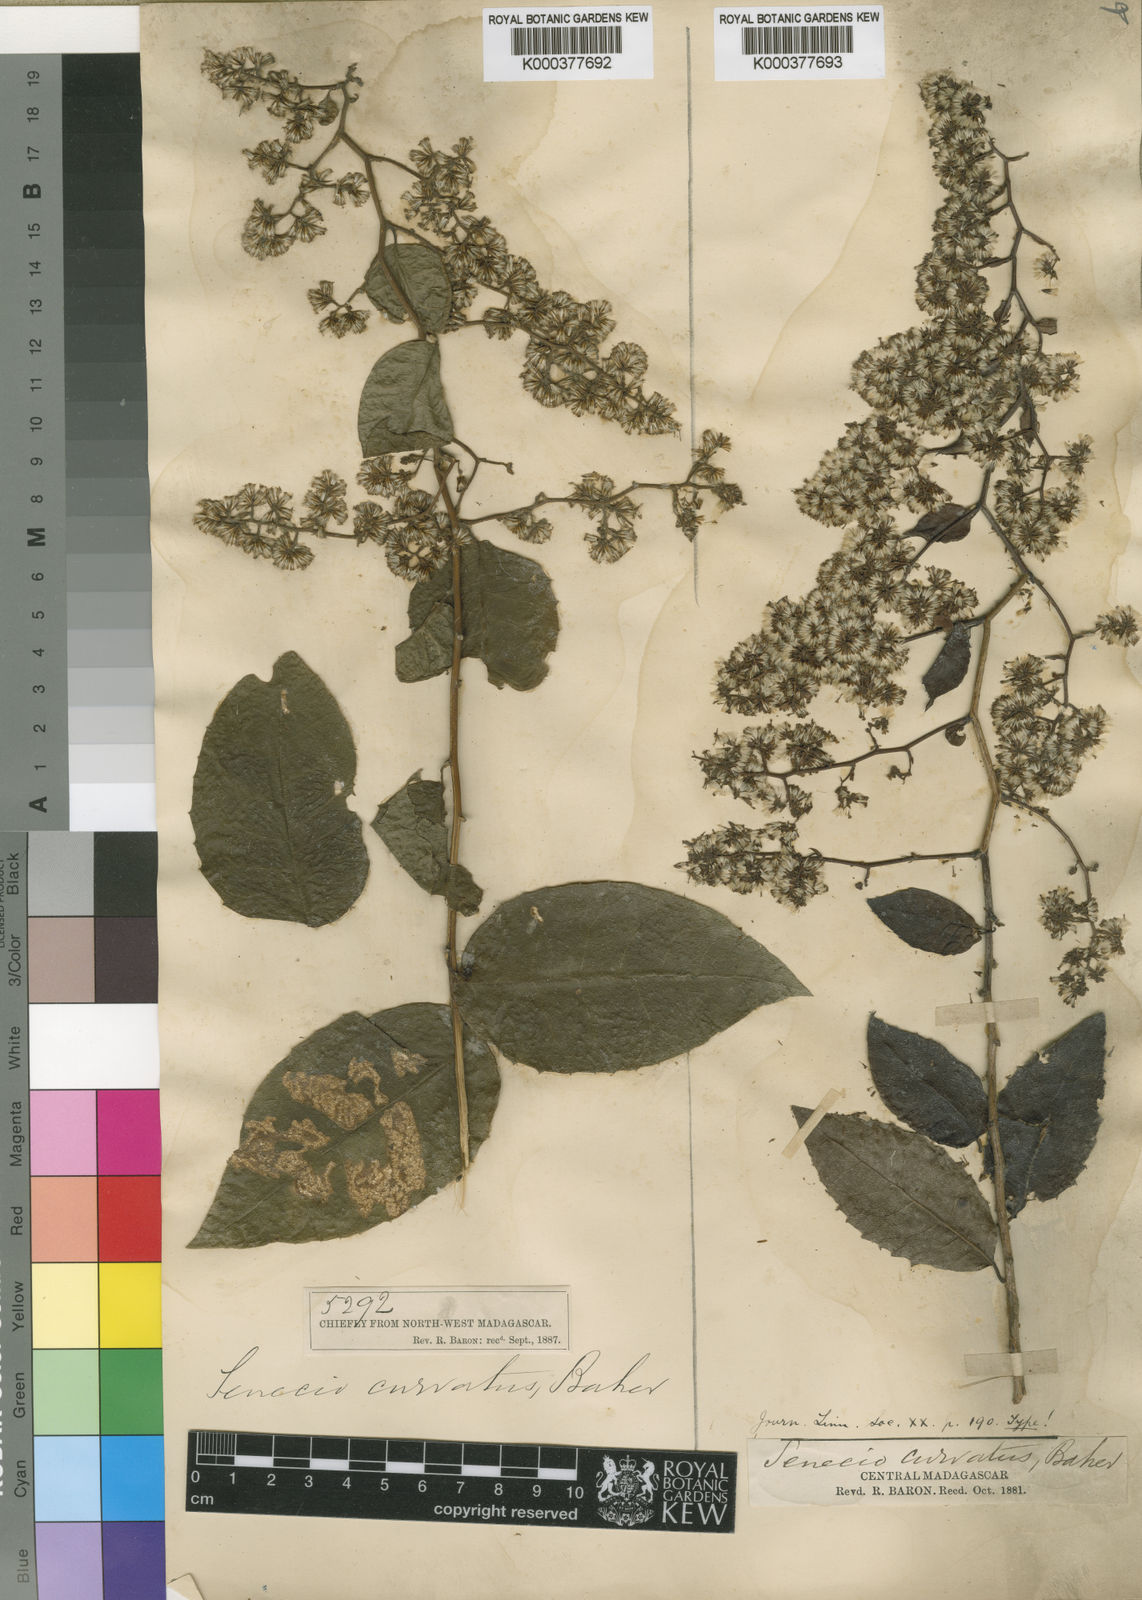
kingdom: Plantae
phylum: Tracheophyta
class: Magnoliopsida
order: Asterales
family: Asteraceae
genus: Humbertacalia
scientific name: Humbertacalia pyrifolia
